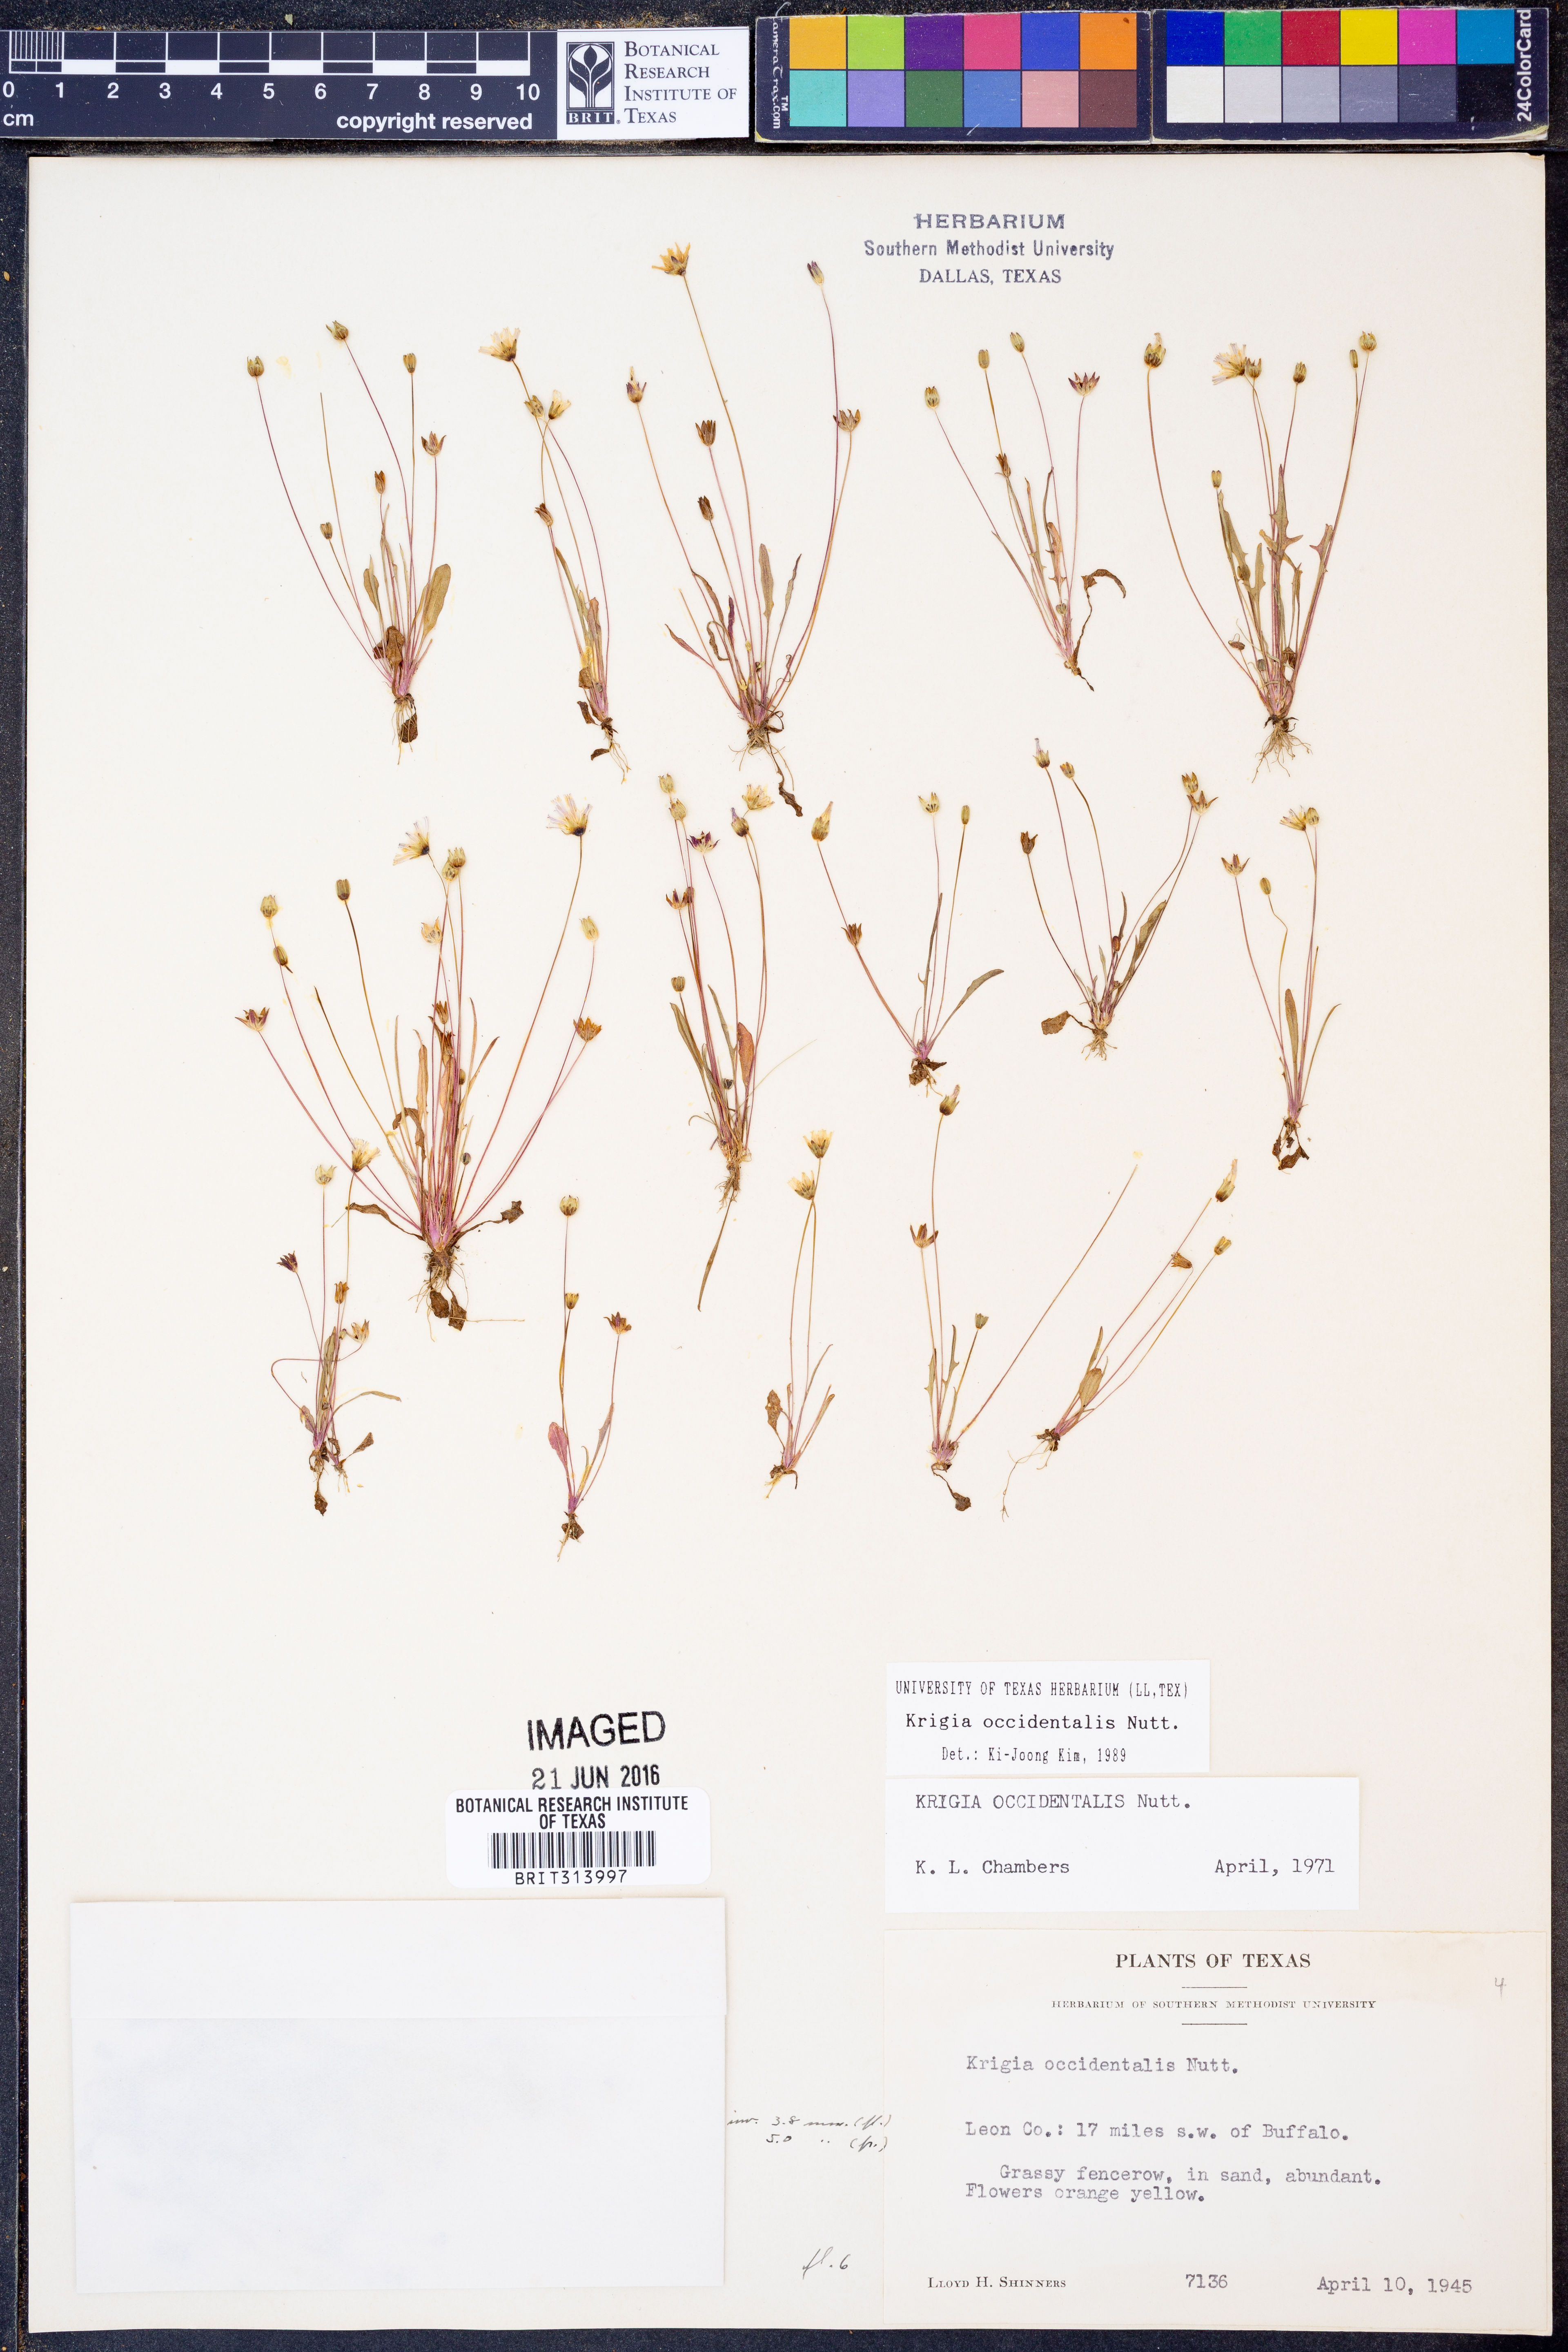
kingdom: Plantae
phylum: Tracheophyta
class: Magnoliopsida
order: Asterales
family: Asteraceae
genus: Krigia
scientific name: Krigia occidentalis
